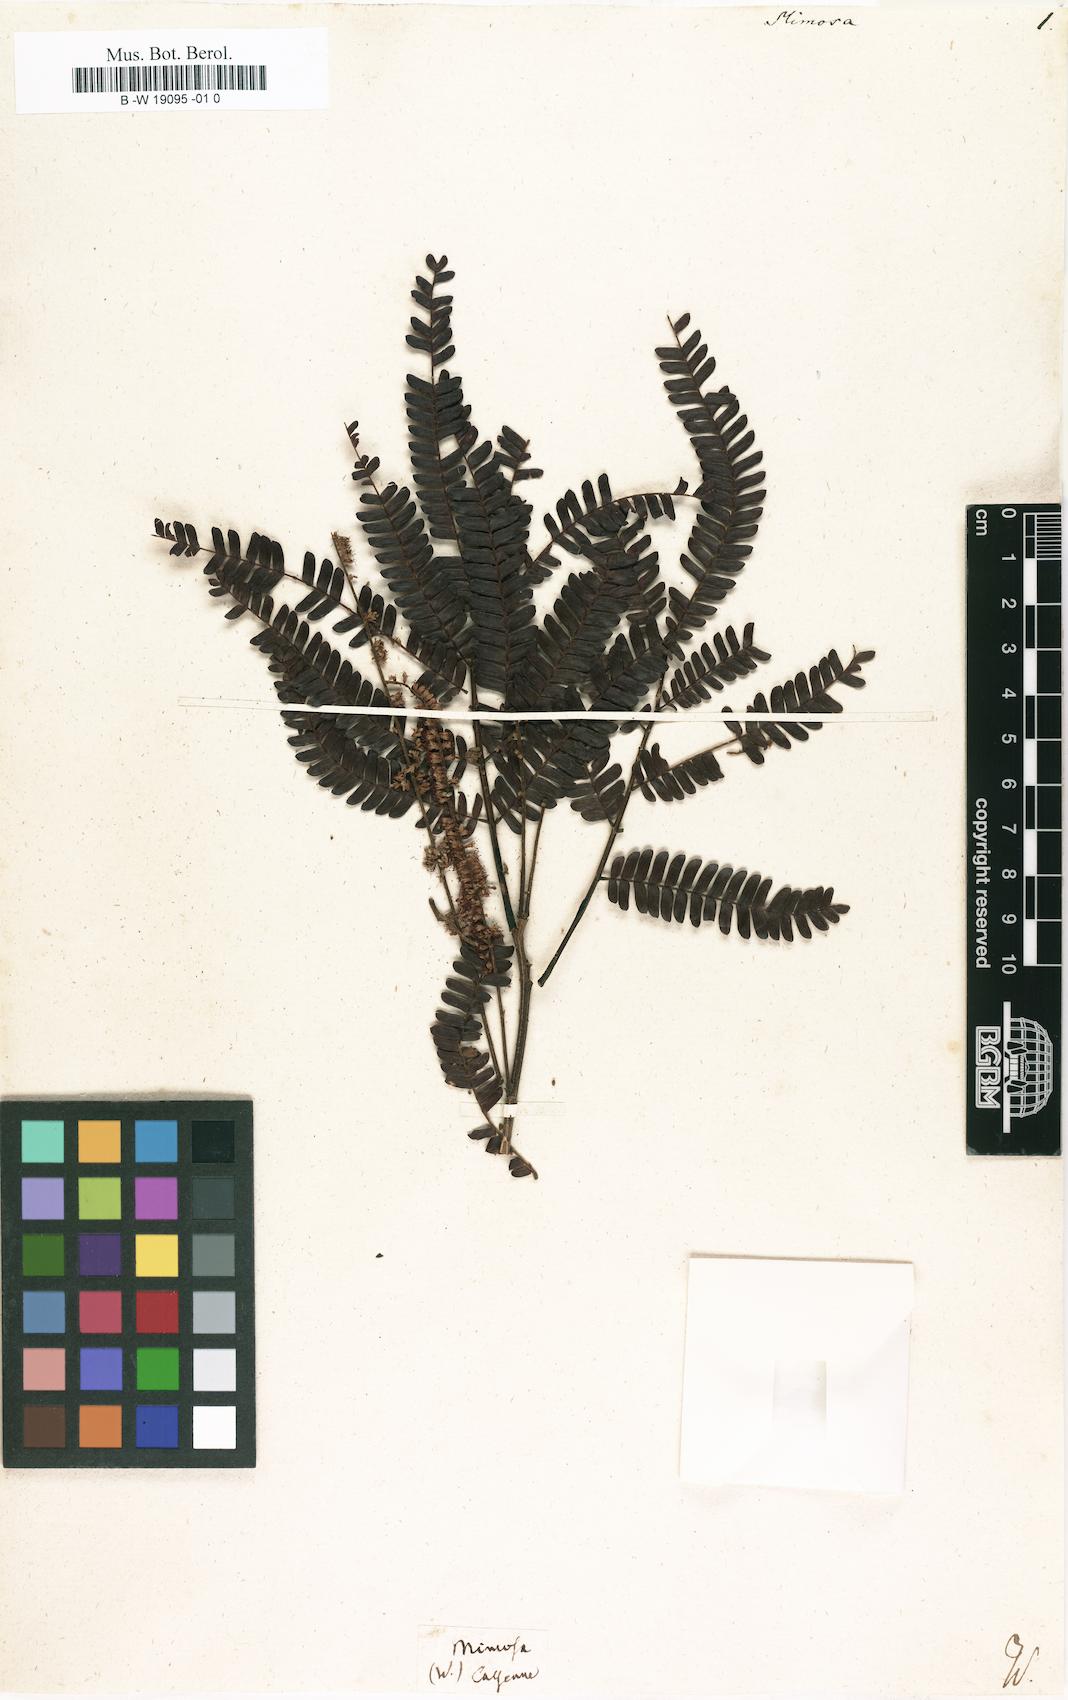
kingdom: Plantae
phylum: Tracheophyta
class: Magnoliopsida
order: Fabales
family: Fabaceae
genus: Mimosa
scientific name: Mimosa
